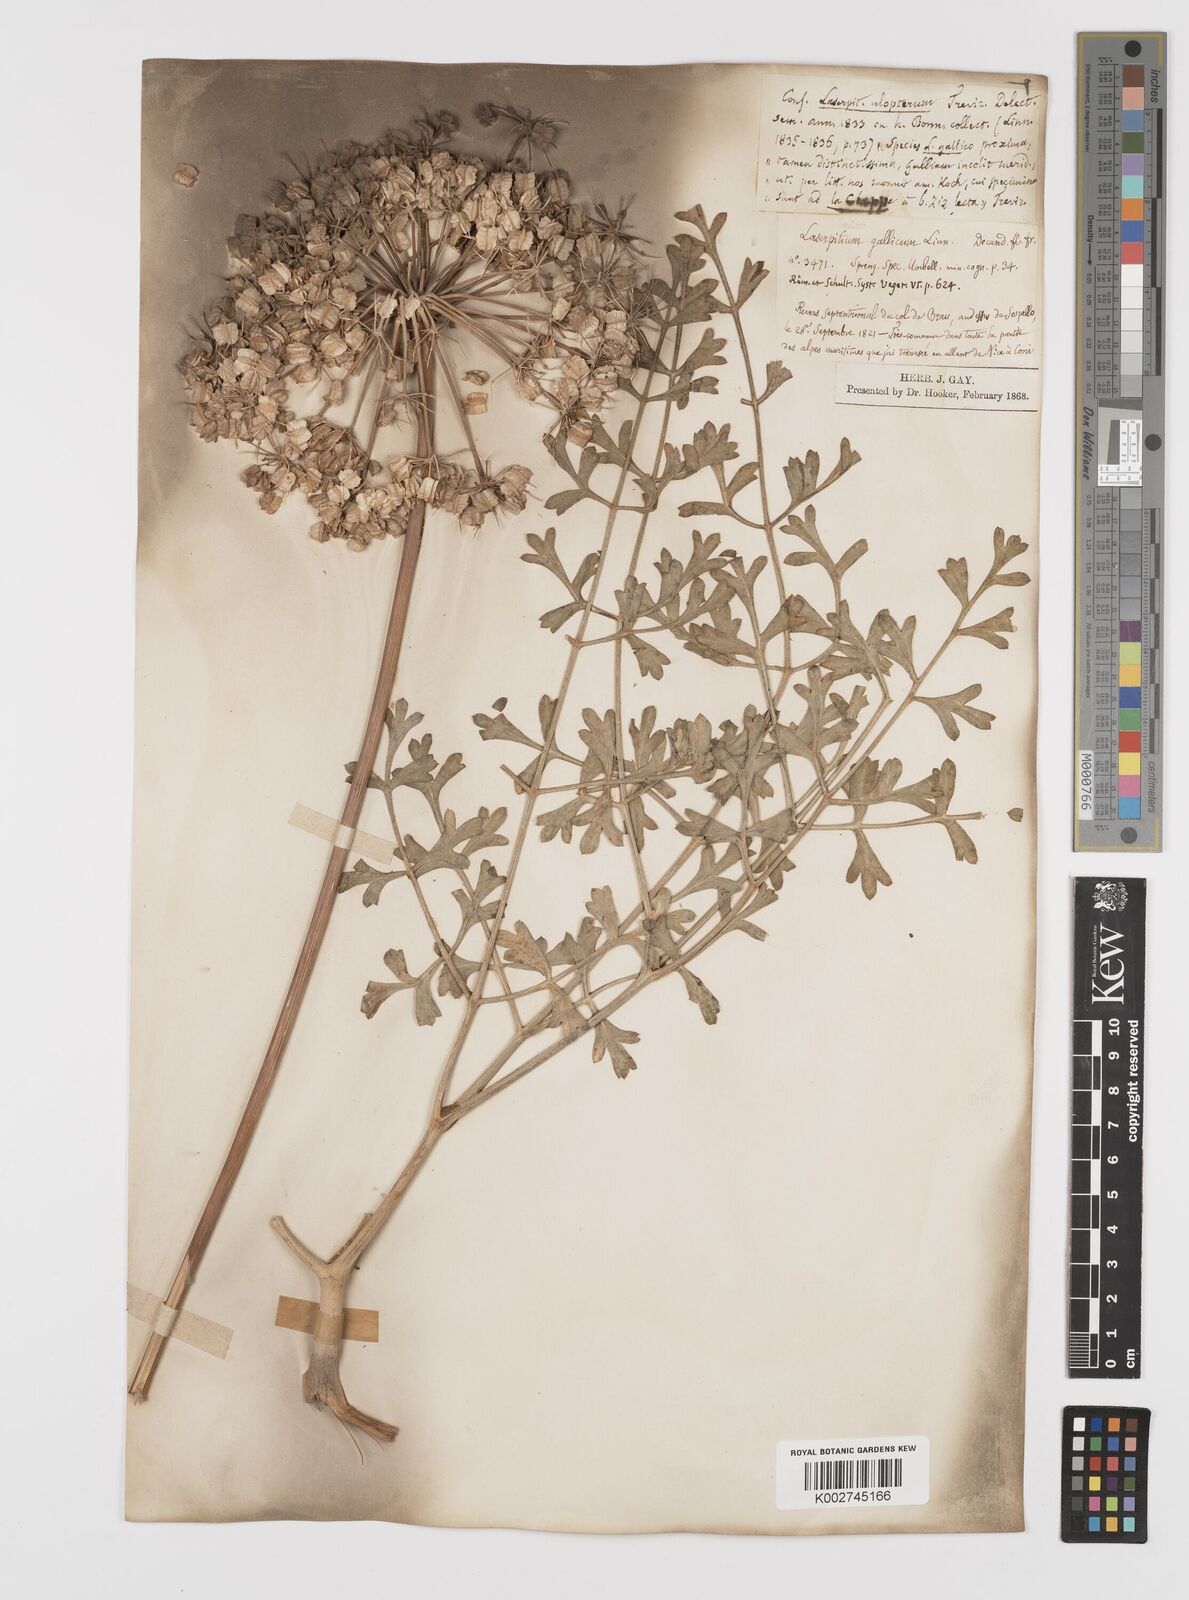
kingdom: Plantae
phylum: Tracheophyta
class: Magnoliopsida
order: Apiales
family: Apiaceae
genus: Laserpitium
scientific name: Laserpitium gallicum
